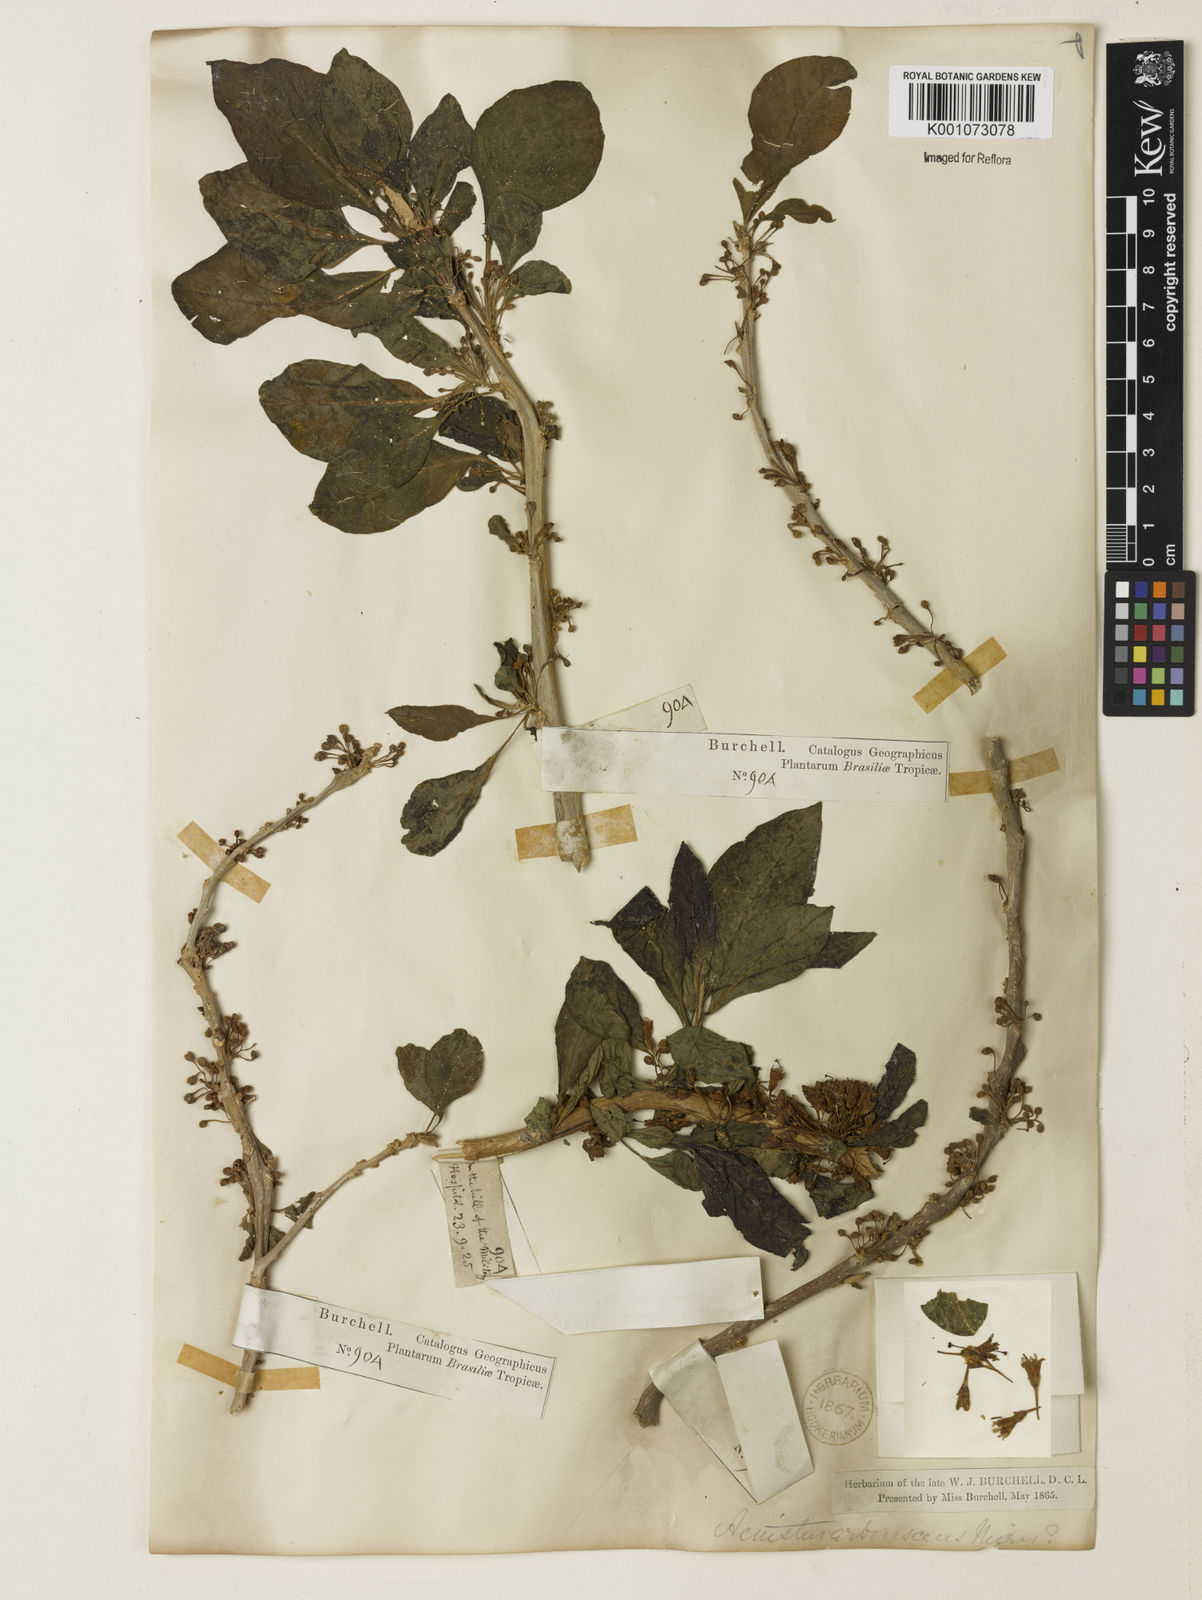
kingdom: Plantae
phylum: Tracheophyta
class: Magnoliopsida
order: Solanales
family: Solanaceae
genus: Iochroma
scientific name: Iochroma arborescens
